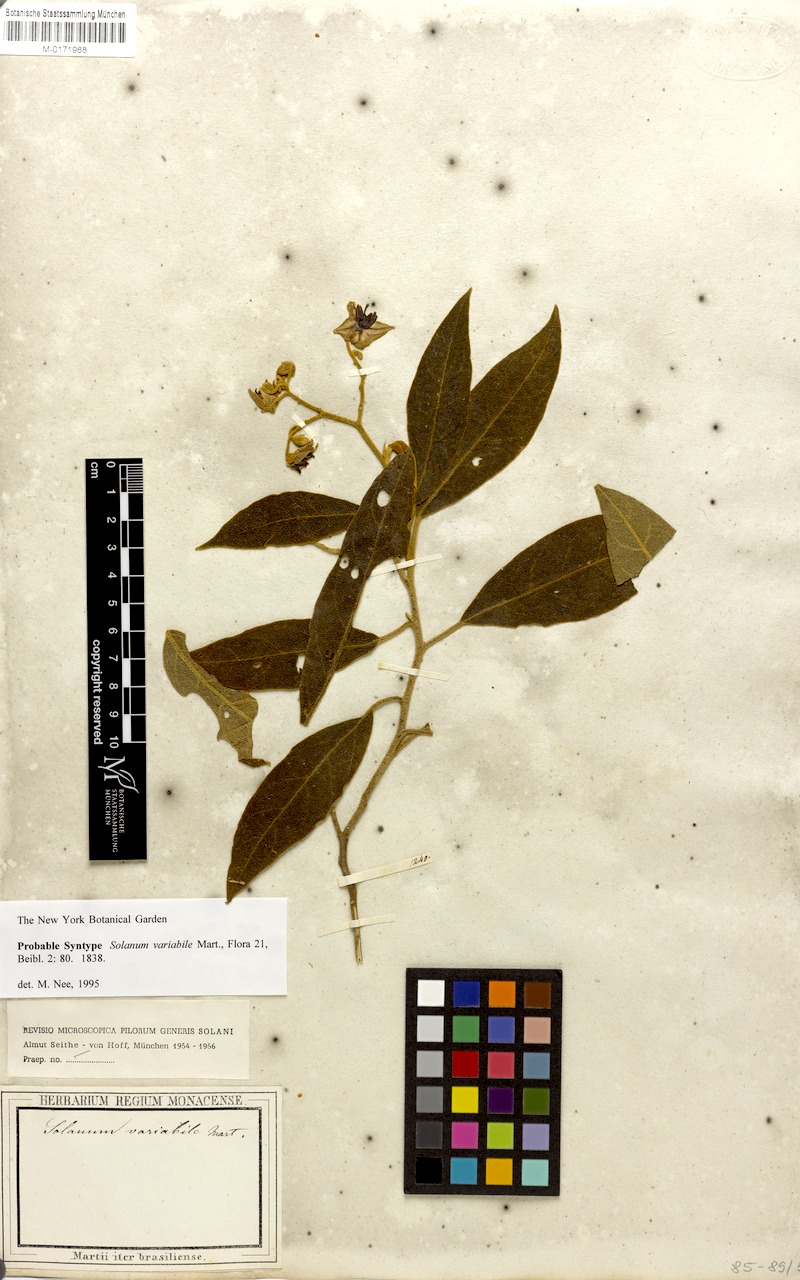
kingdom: Plantae
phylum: Tracheophyta
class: Magnoliopsida
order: Solanales
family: Solanaceae
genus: Solanum
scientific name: Solanum variabile
